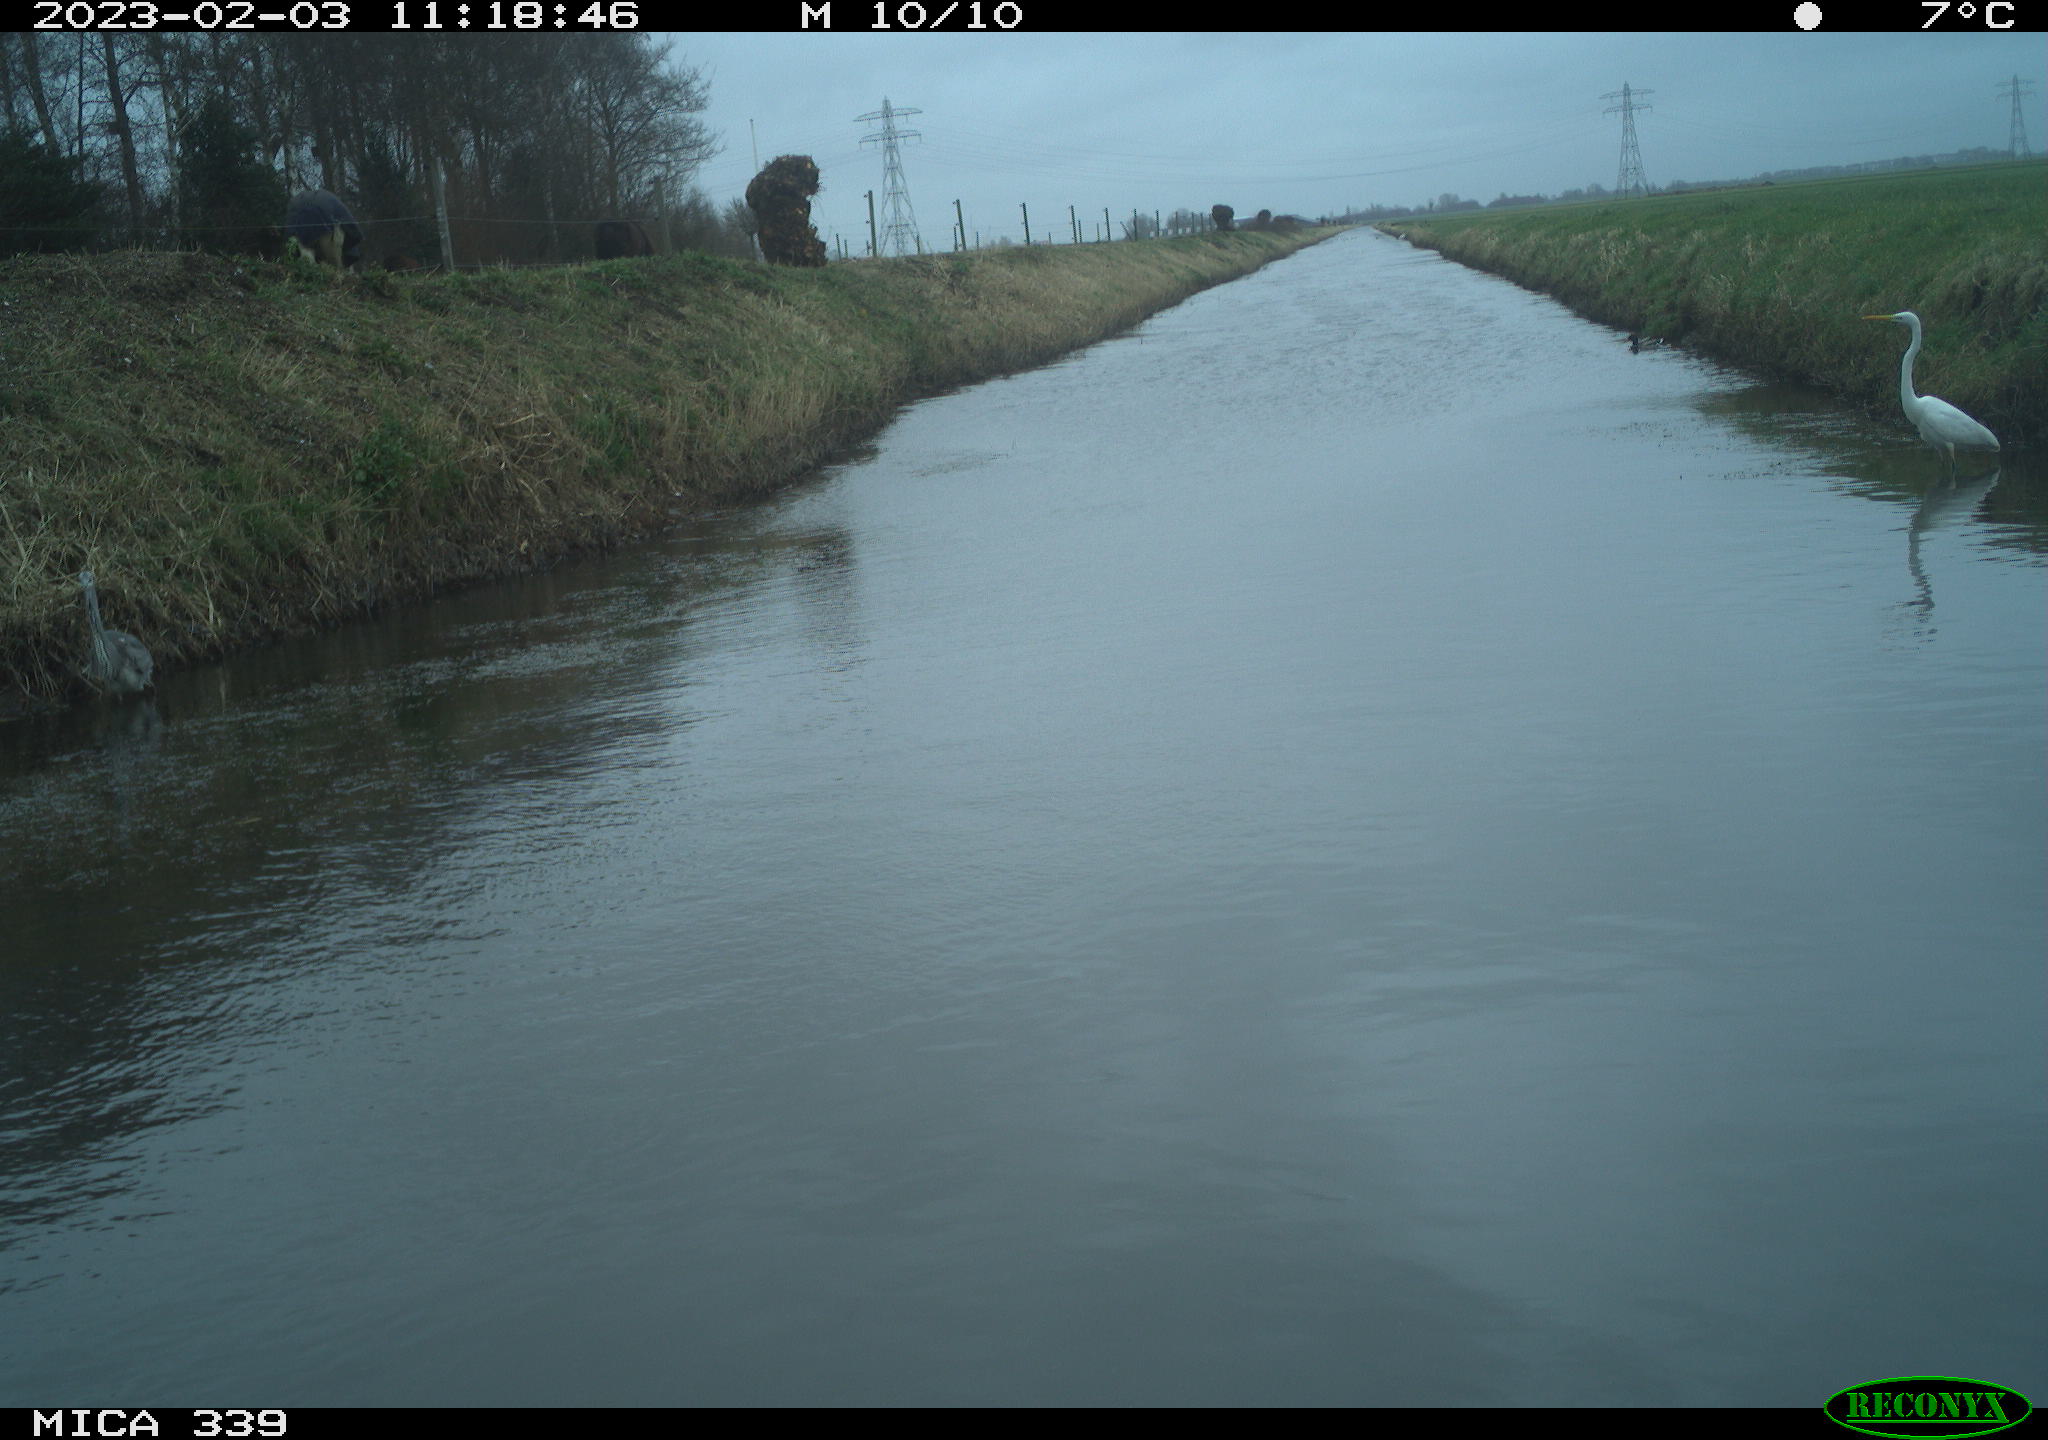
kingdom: Animalia
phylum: Chordata
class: Aves
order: Pelecaniformes
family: Ardeidae
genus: Ardea
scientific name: Ardea alba
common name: Great egret
